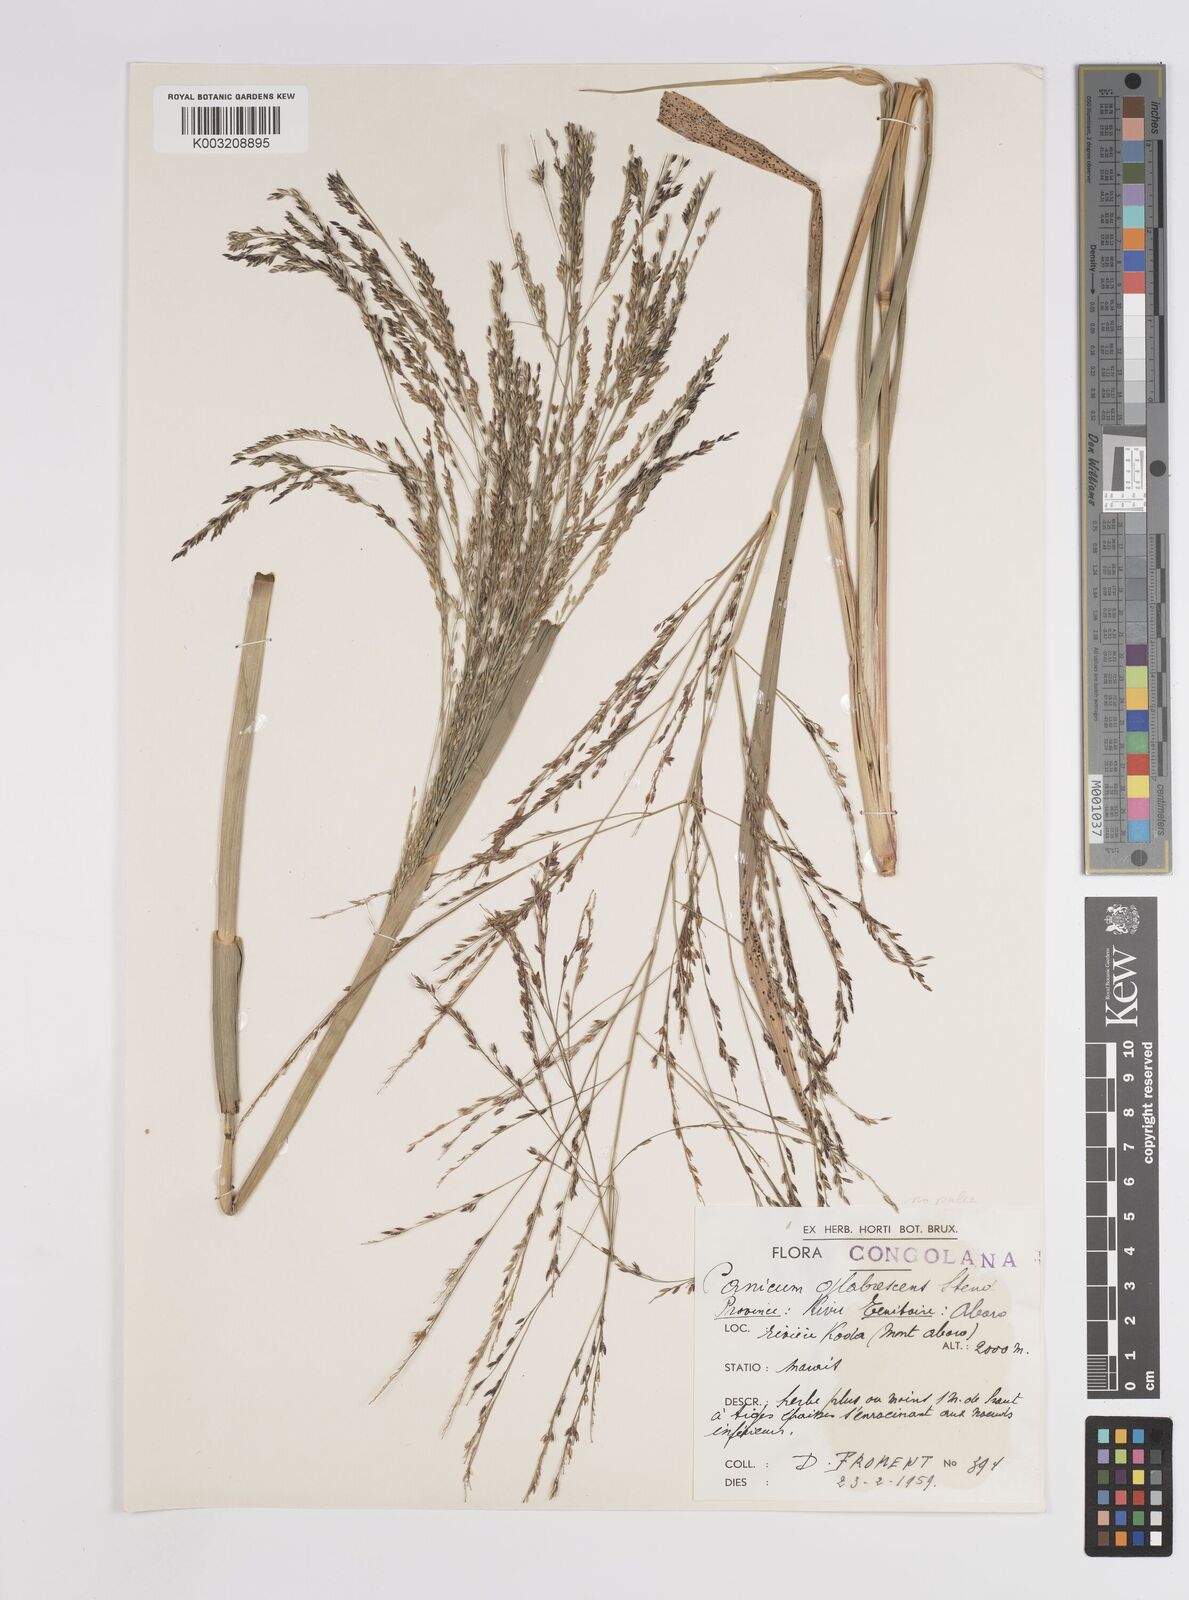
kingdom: Plantae
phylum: Tracheophyta
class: Liliopsida
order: Poales
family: Poaceae
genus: Panicum
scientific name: Panicum subalbidum
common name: Elbow buffalo grass
